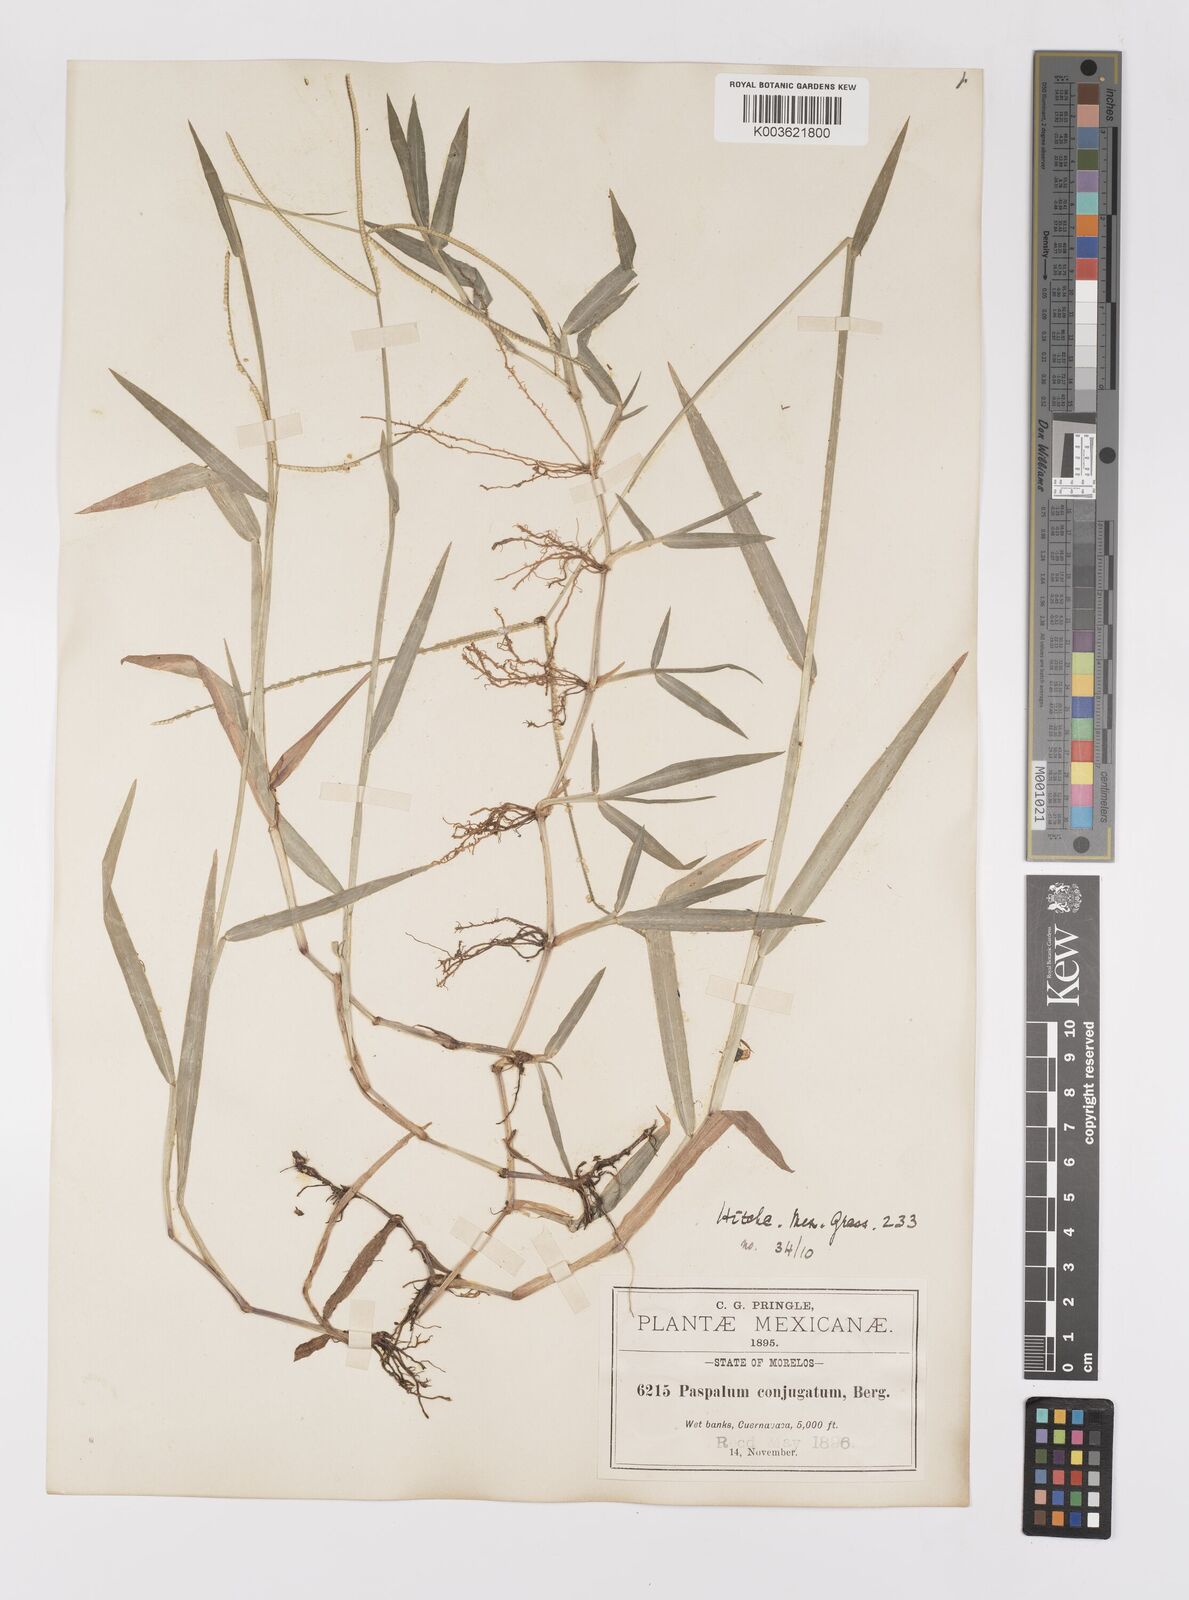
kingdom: Plantae
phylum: Tracheophyta
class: Liliopsida
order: Poales
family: Poaceae
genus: Paspalum
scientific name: Paspalum conjugatum
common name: Hilograss
